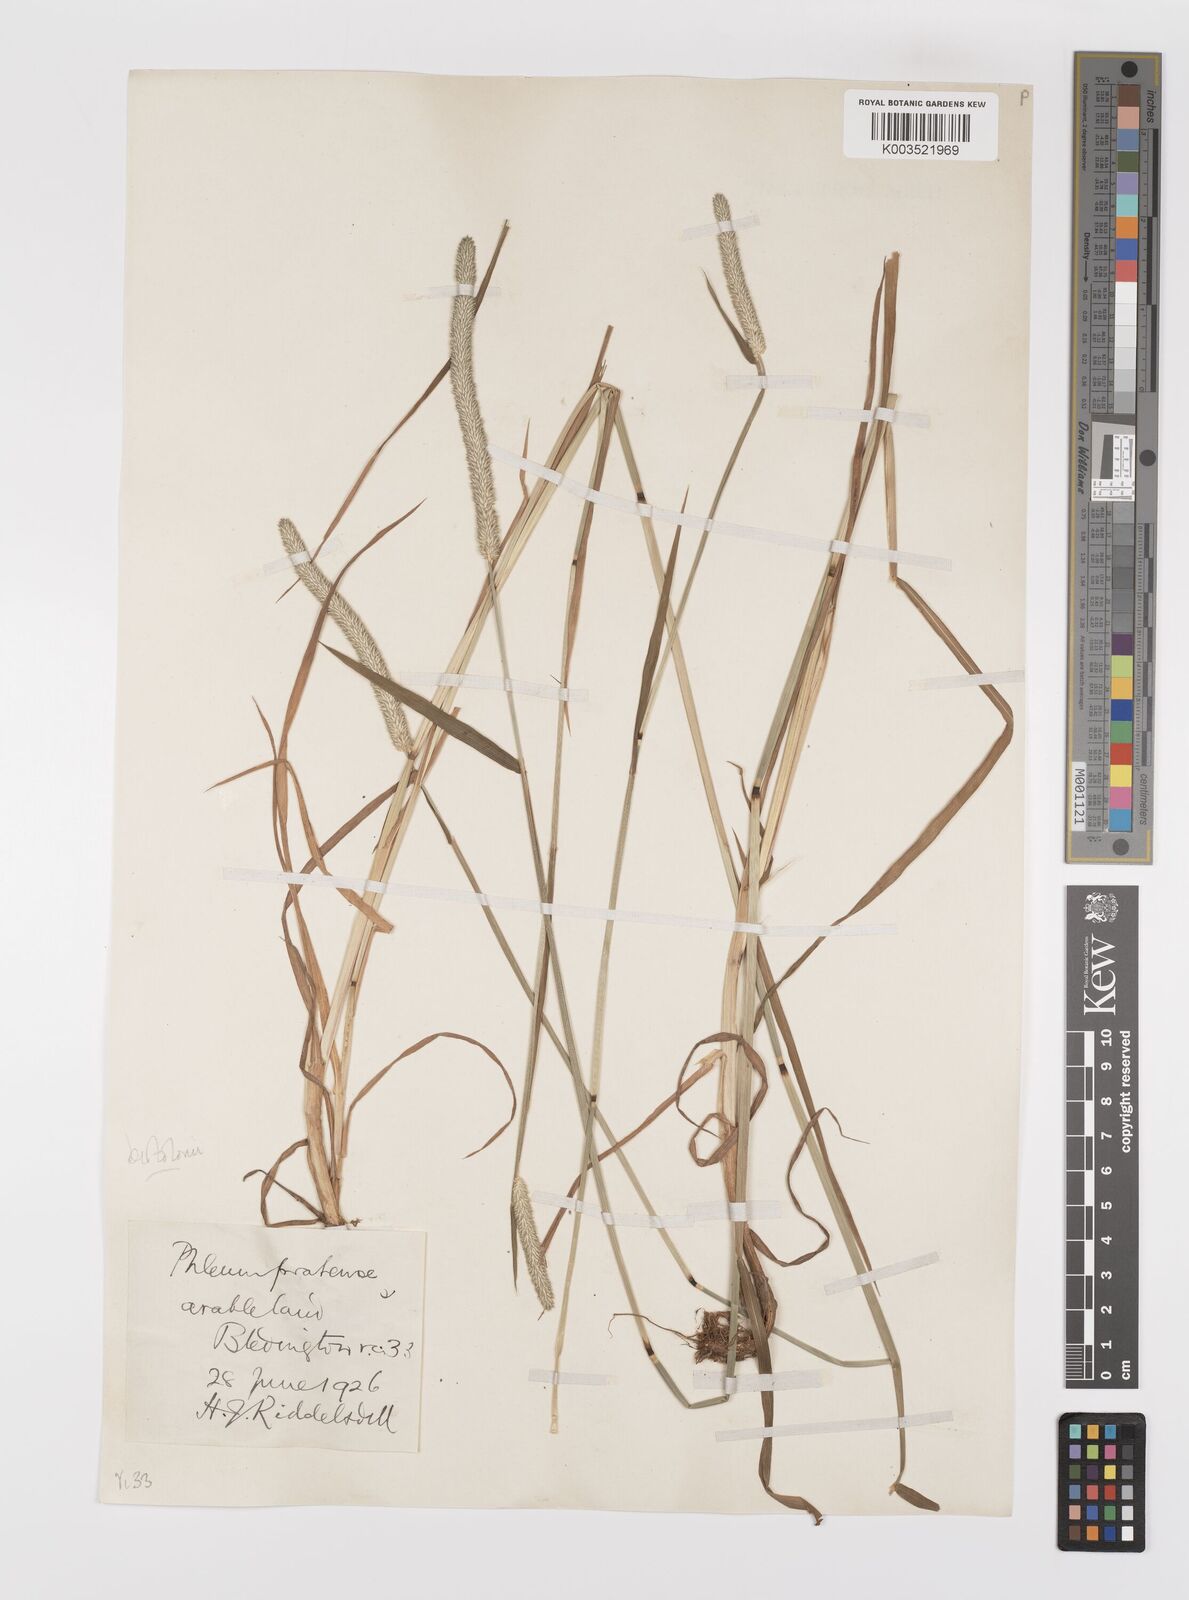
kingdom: Plantae
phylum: Tracheophyta
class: Liliopsida
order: Poales
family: Poaceae
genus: Phleum
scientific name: Phleum bertolonii
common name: Smaller cat's-tail
